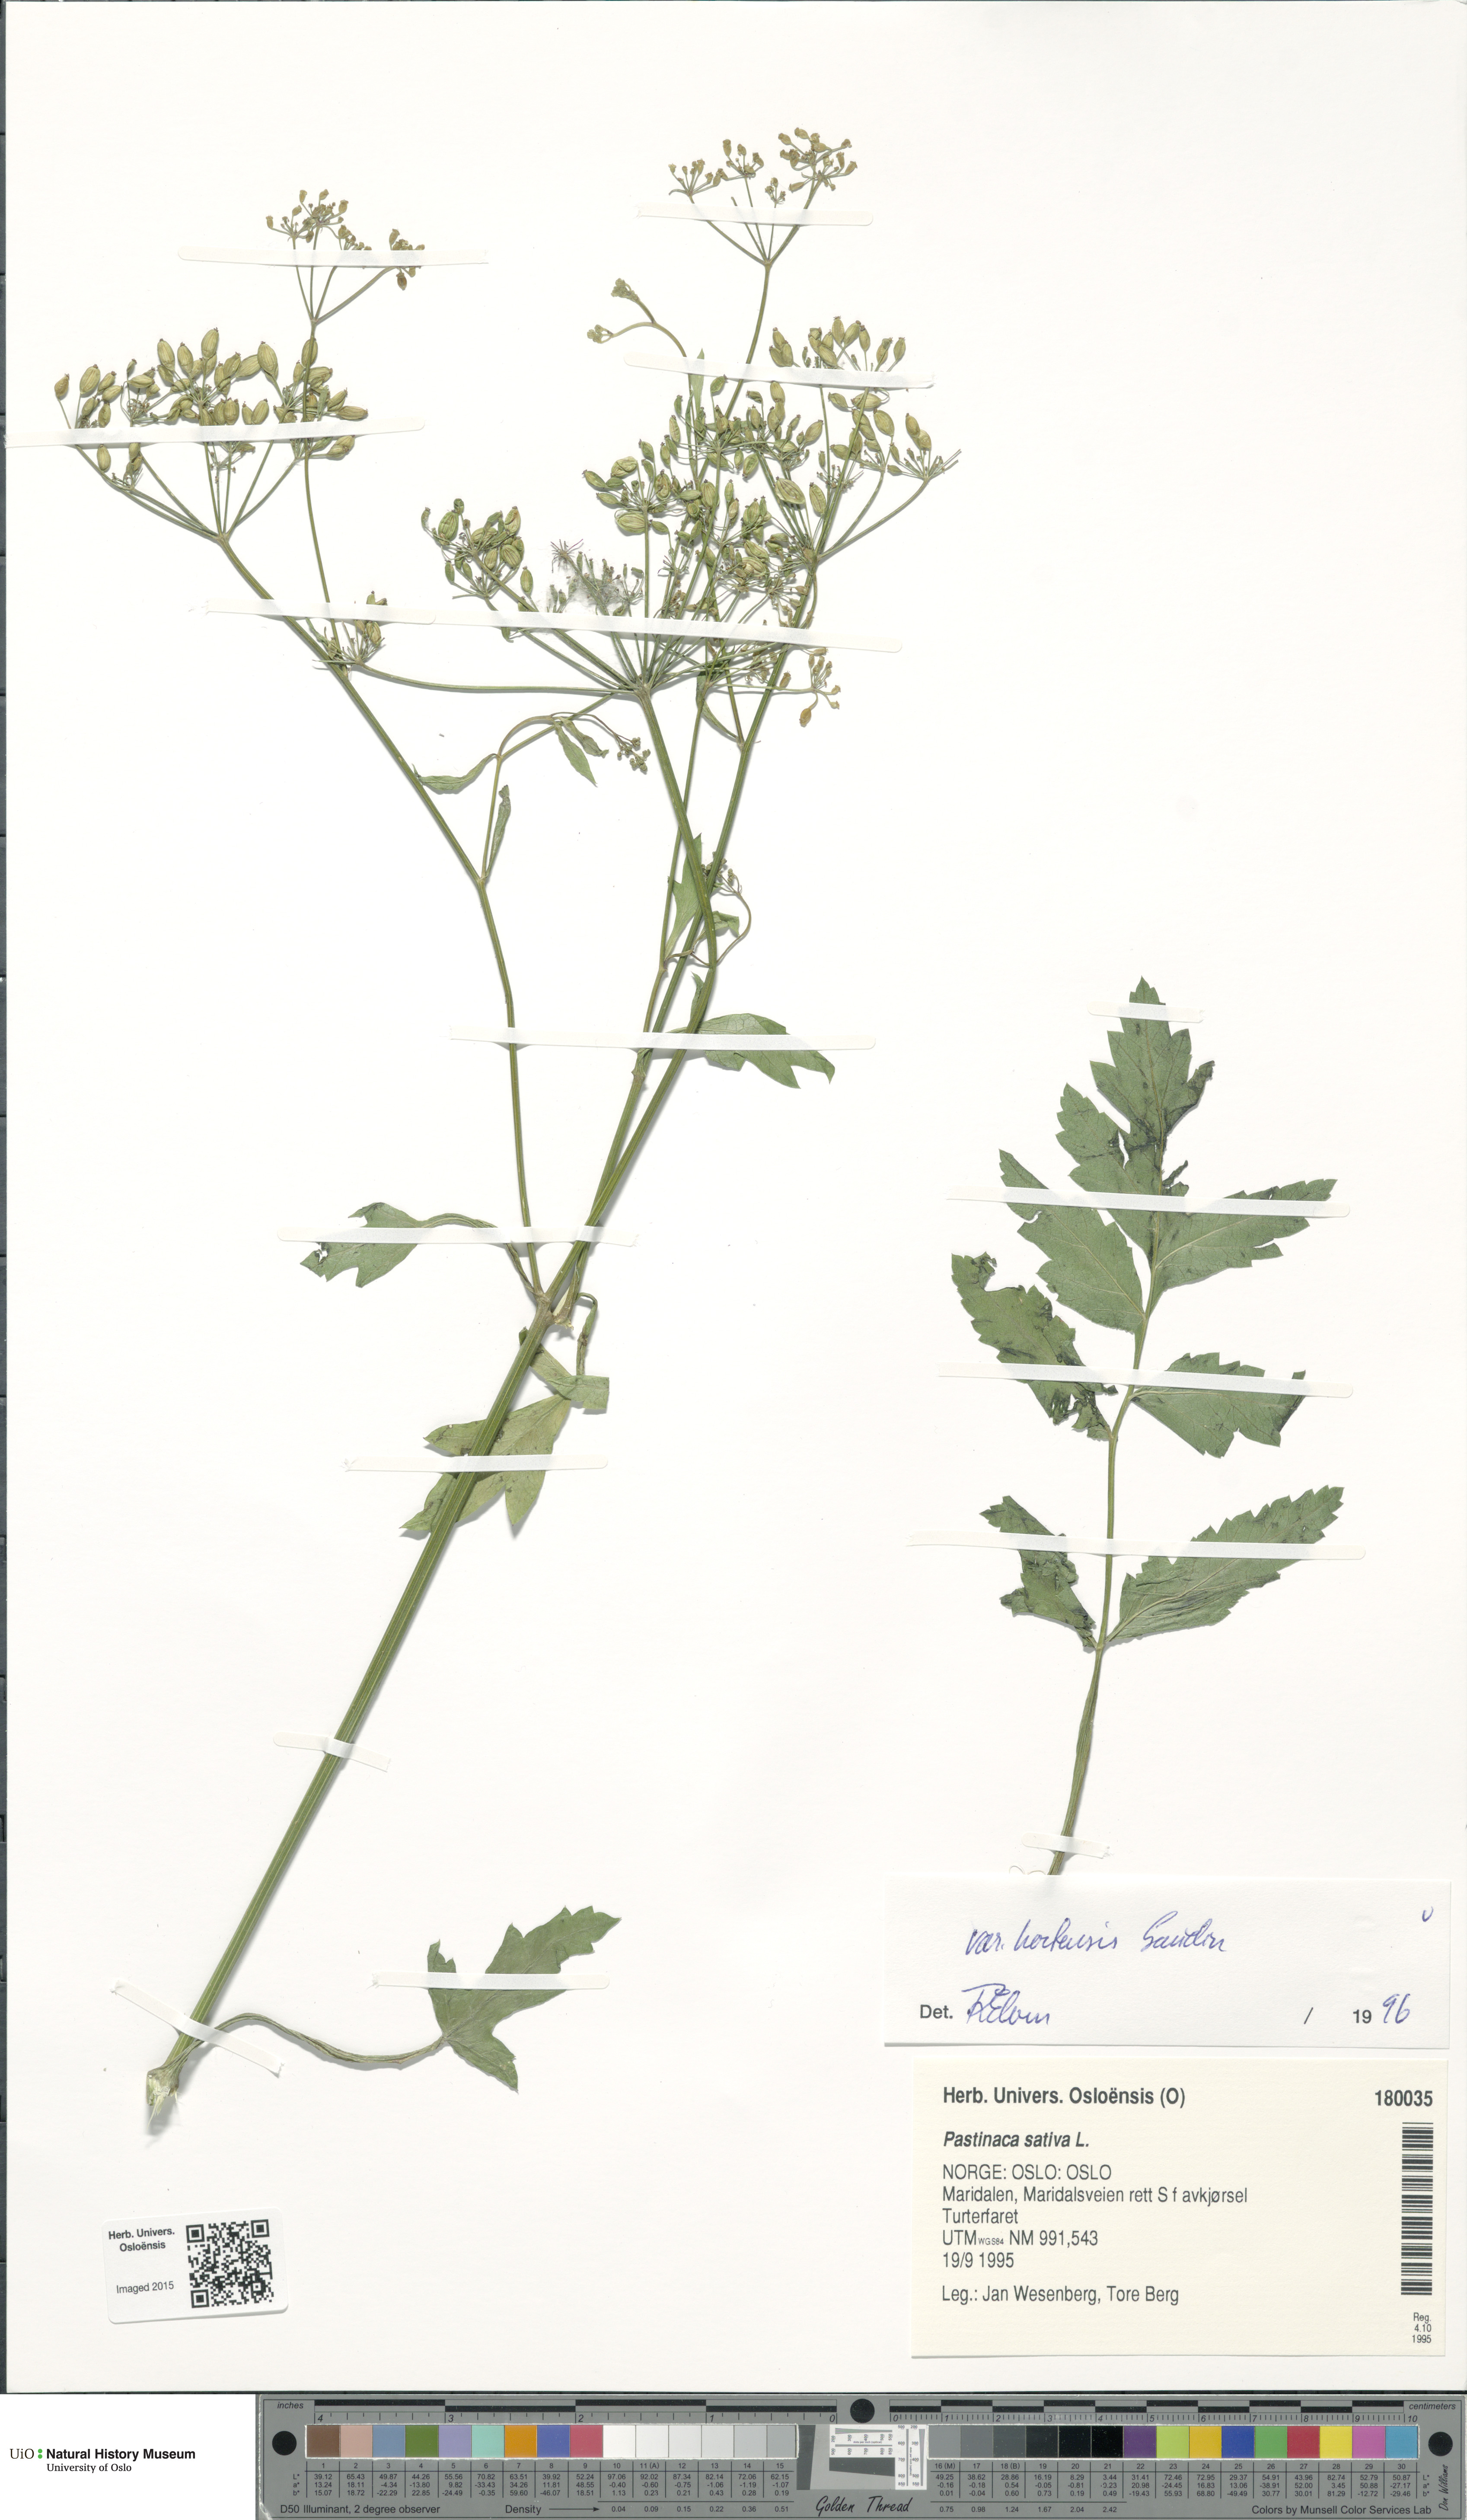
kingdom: Plantae
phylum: Tracheophyta
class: Magnoliopsida
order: Apiales
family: Apiaceae
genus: Pastinaca
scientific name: Pastinaca sativa
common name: Wild parsnip
